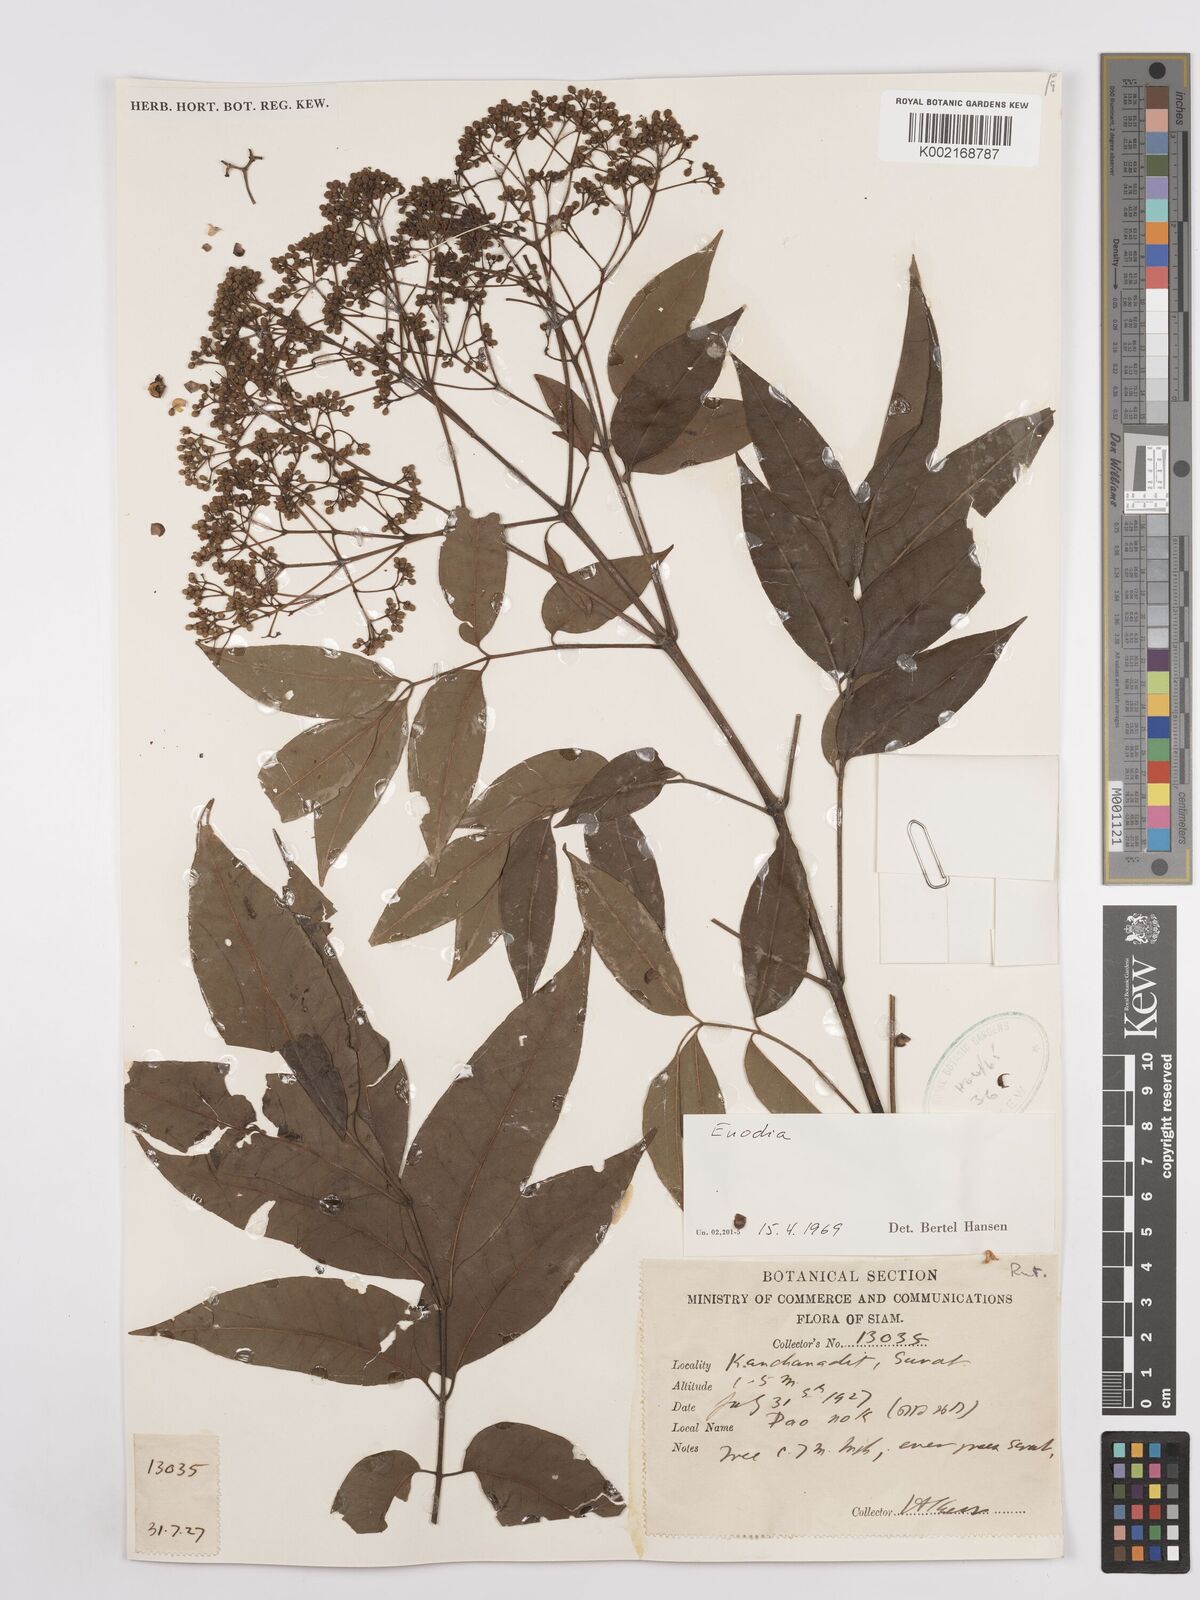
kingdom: Plantae
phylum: Tracheophyta
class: Magnoliopsida
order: Sapindales
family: Rutaceae
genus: Euodia
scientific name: Euodia
